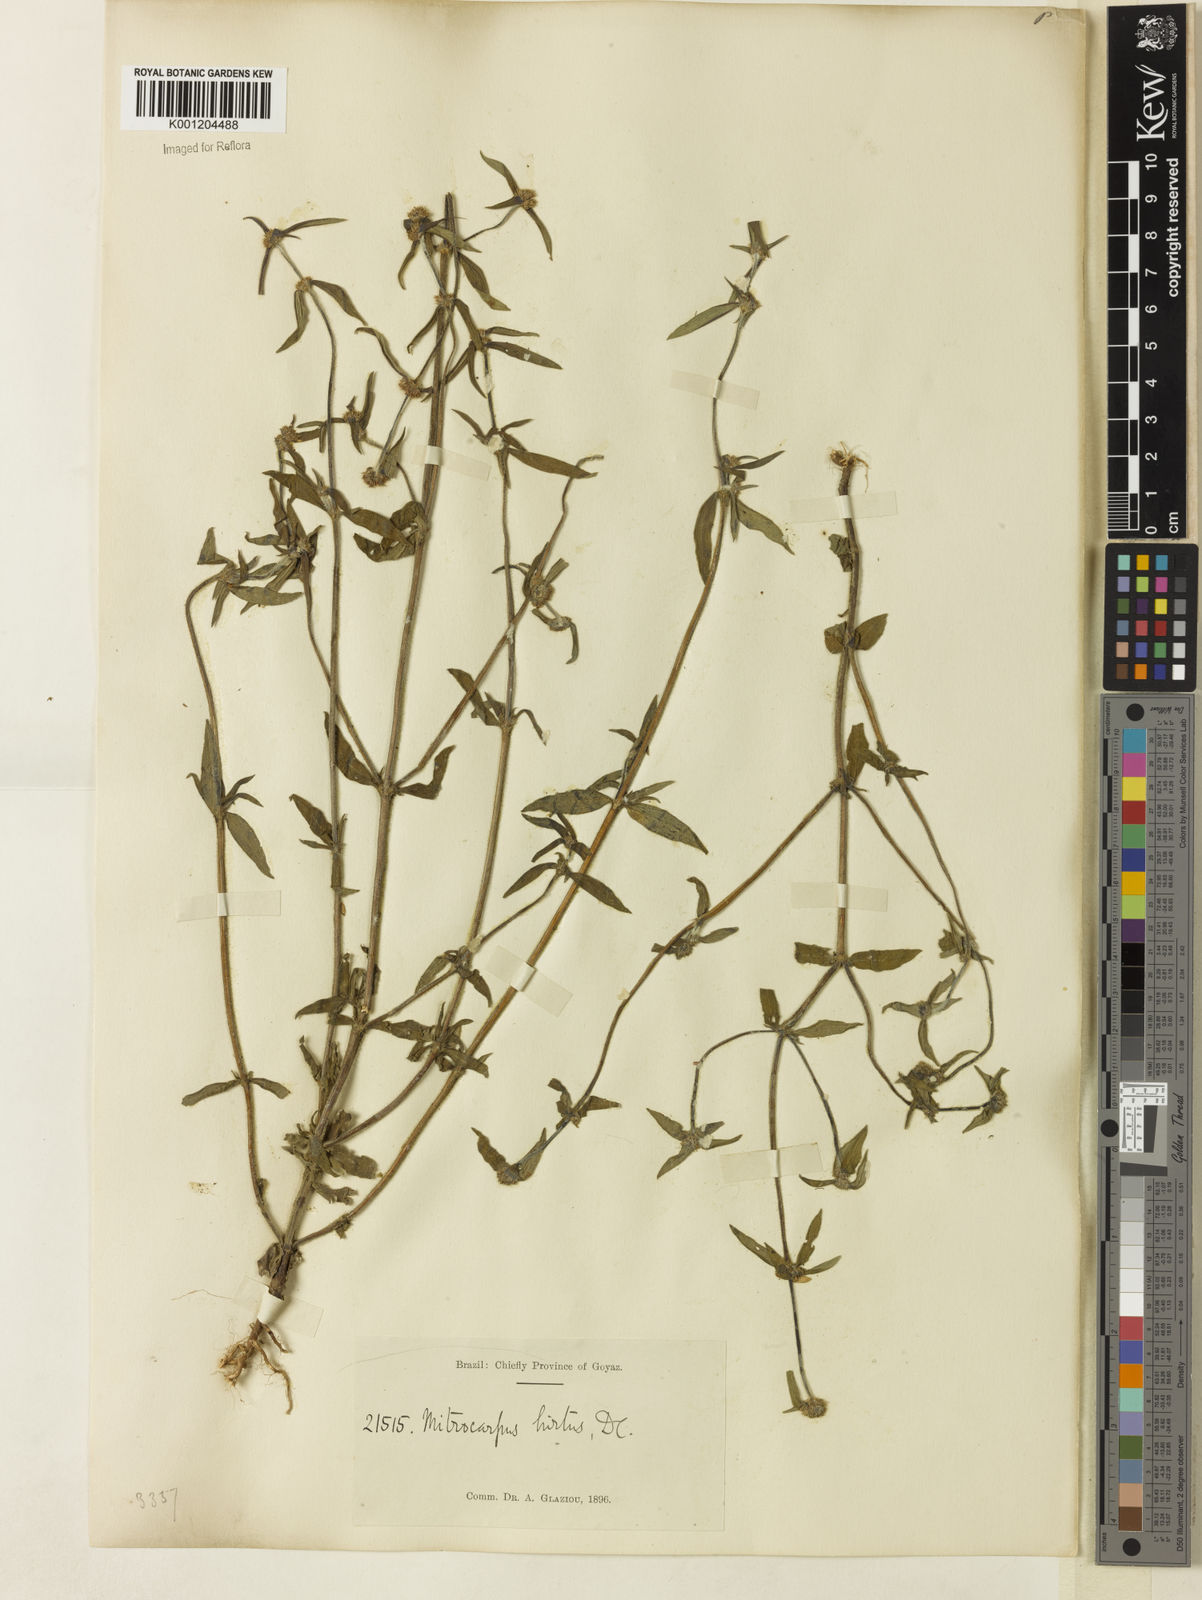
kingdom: Plantae
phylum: Tracheophyta
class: Magnoliopsida
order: Gentianales
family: Rubiaceae
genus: Mitracarpus
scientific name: Mitracarpus hirtus
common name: Tropical girdlepod
